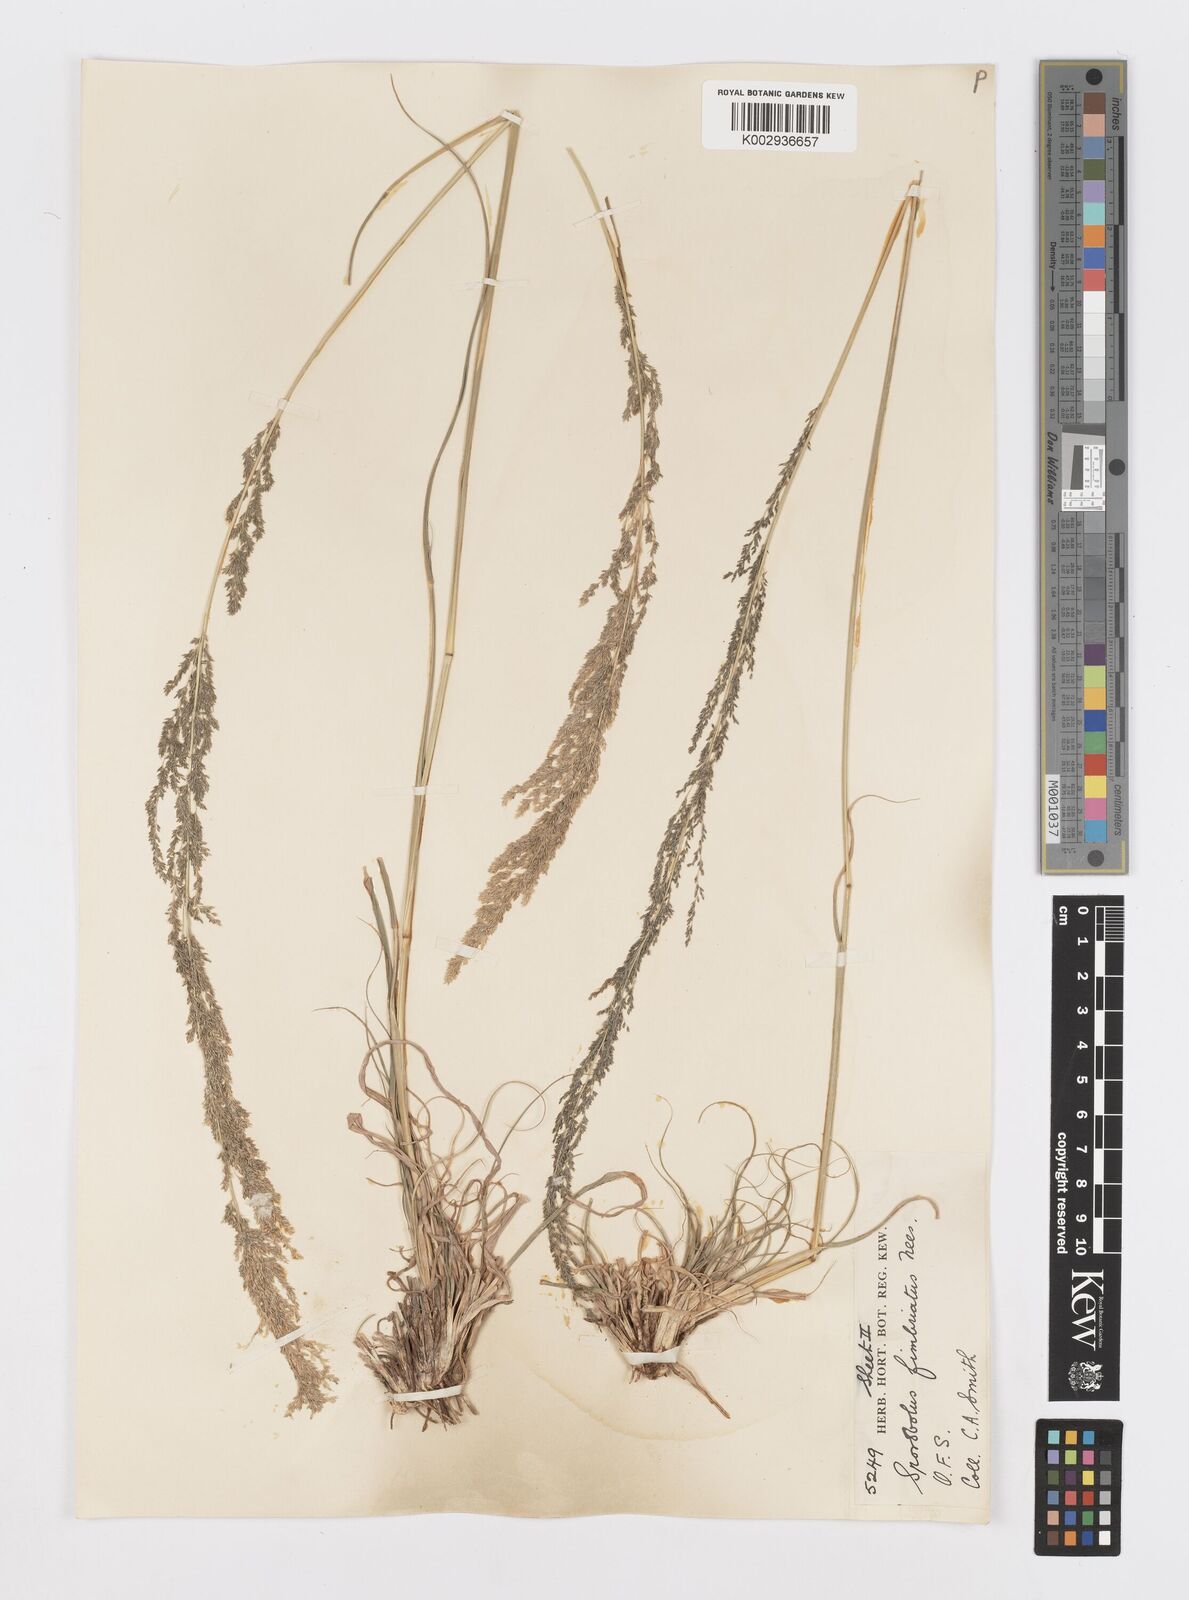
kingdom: Plantae
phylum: Tracheophyta
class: Liliopsida
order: Poales
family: Poaceae
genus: Sporobolus
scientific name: Sporobolus fimbriatus
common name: Fringed dropseed
